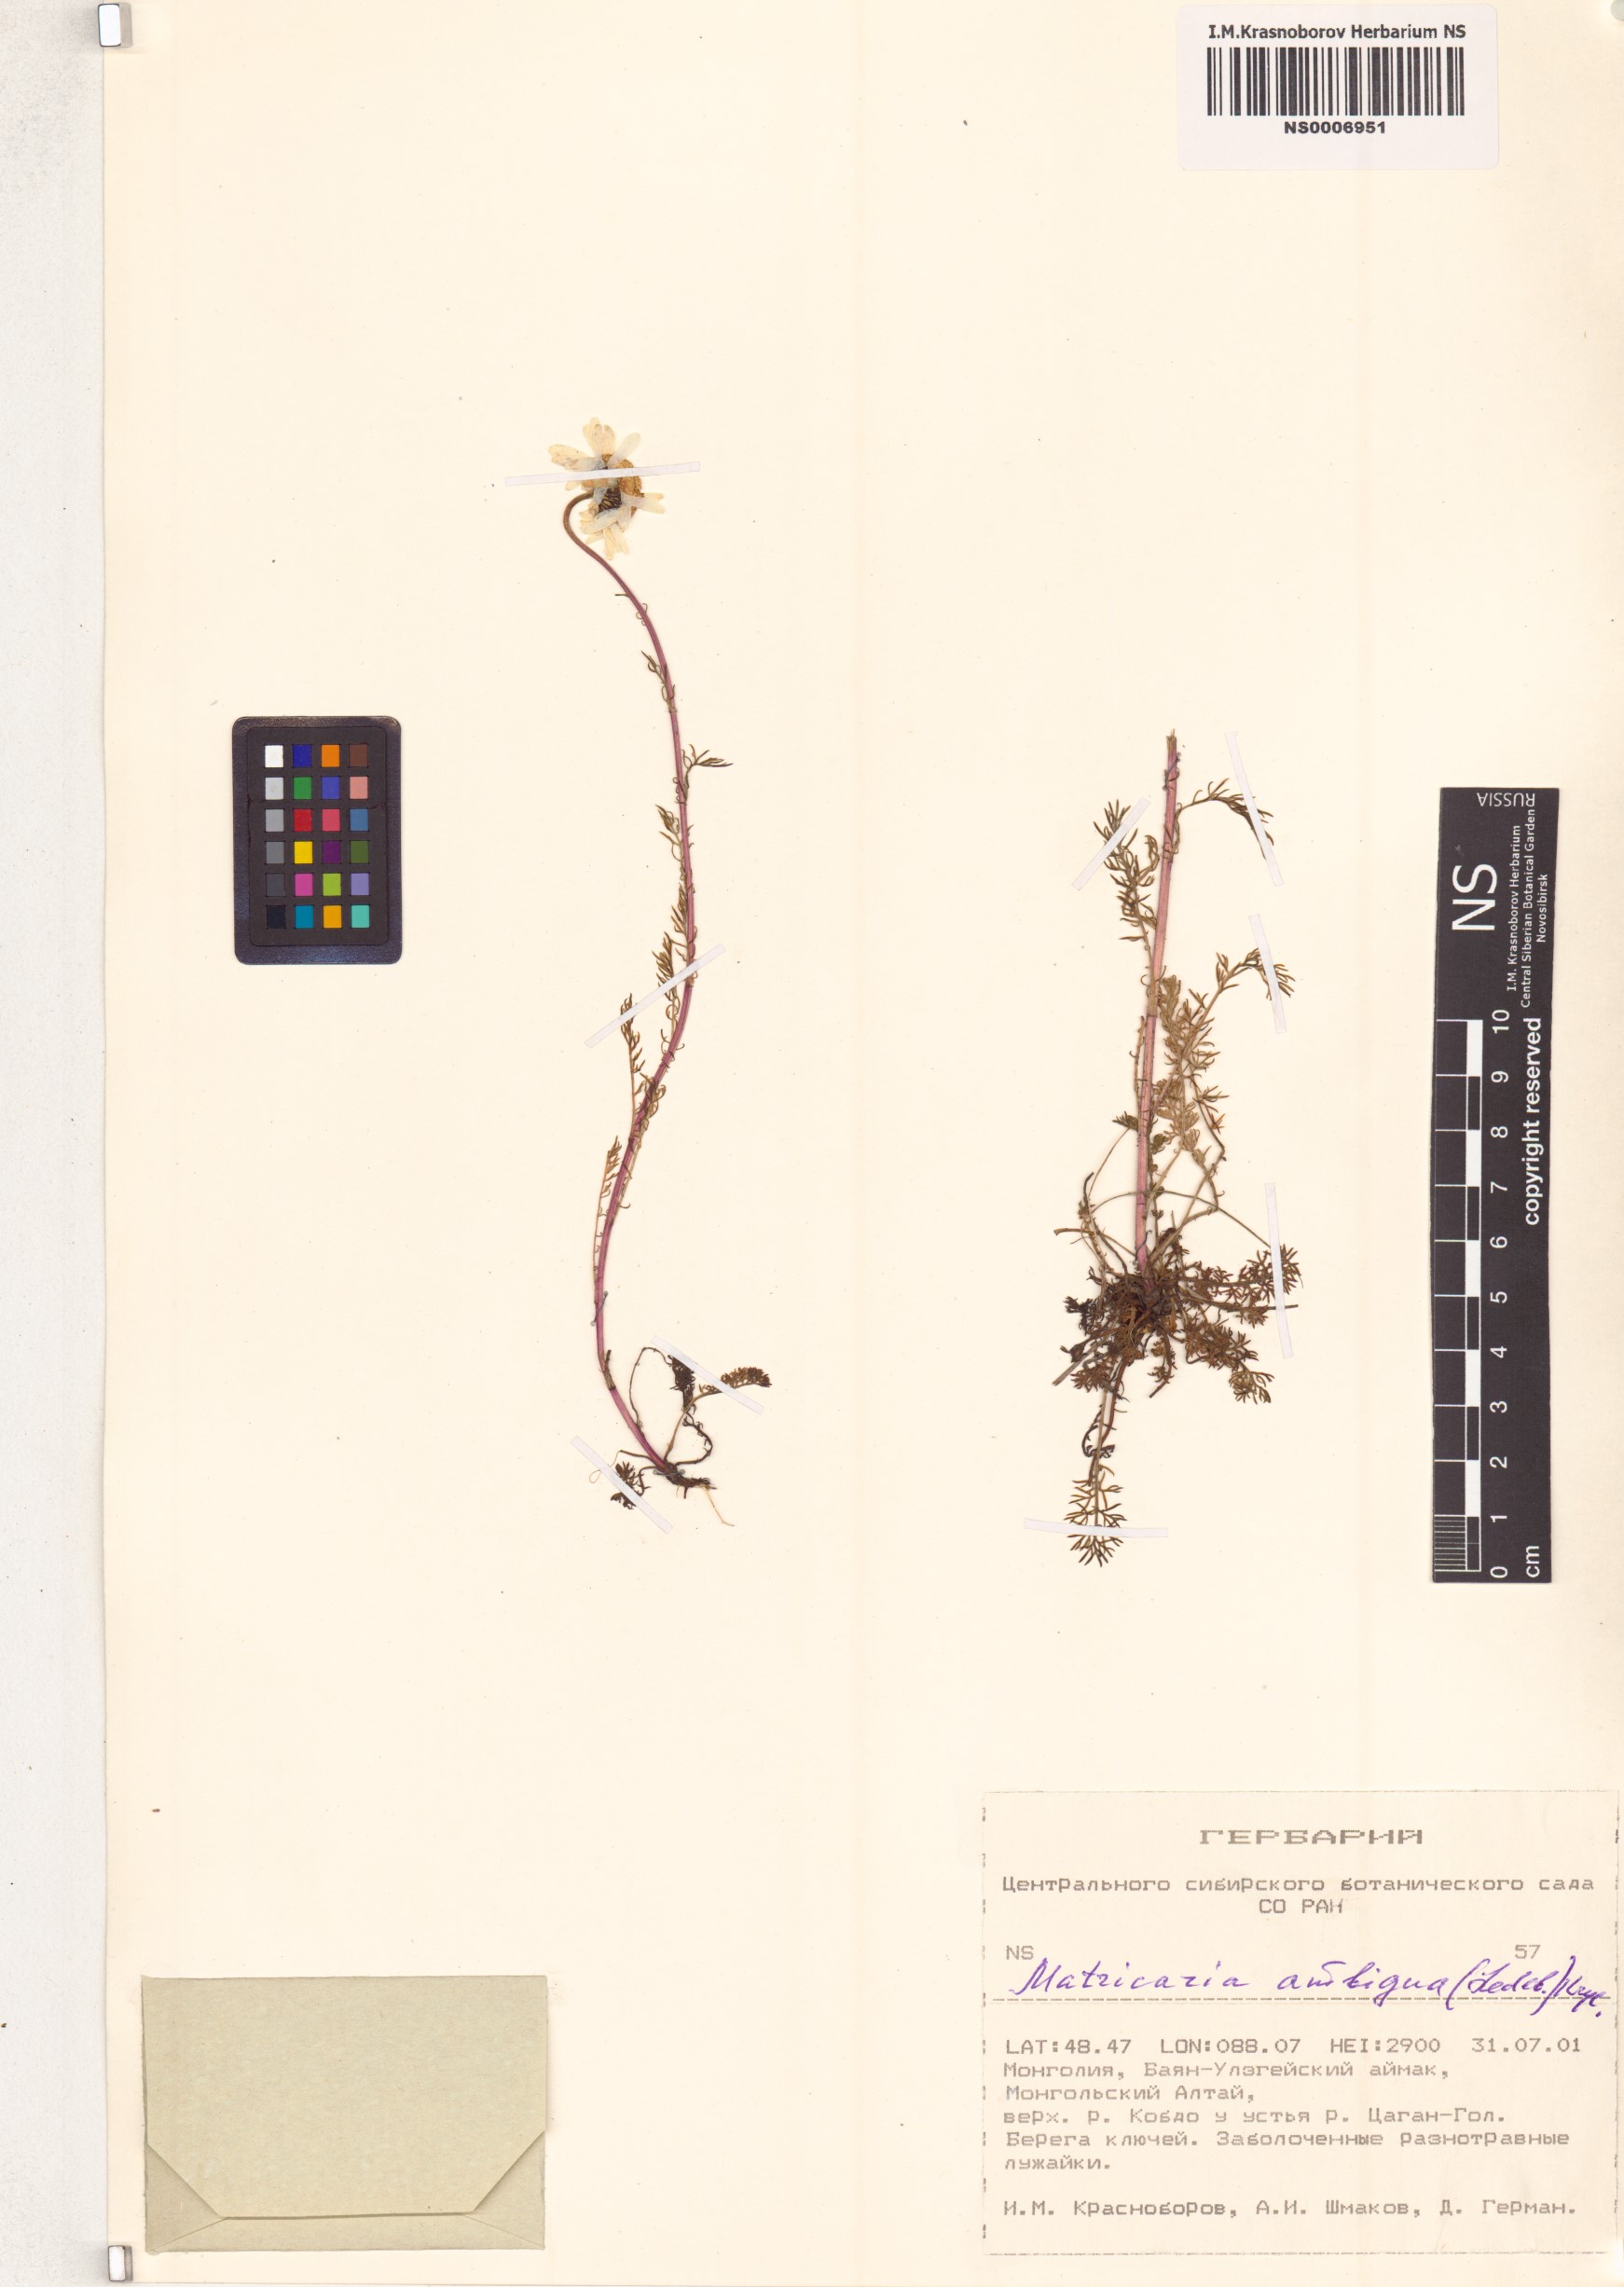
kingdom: Plantae
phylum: Tracheophyta
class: Magnoliopsida
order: Asterales
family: Asteraceae
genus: Tripleurospermum
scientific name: Tripleurospermum ambiguum
